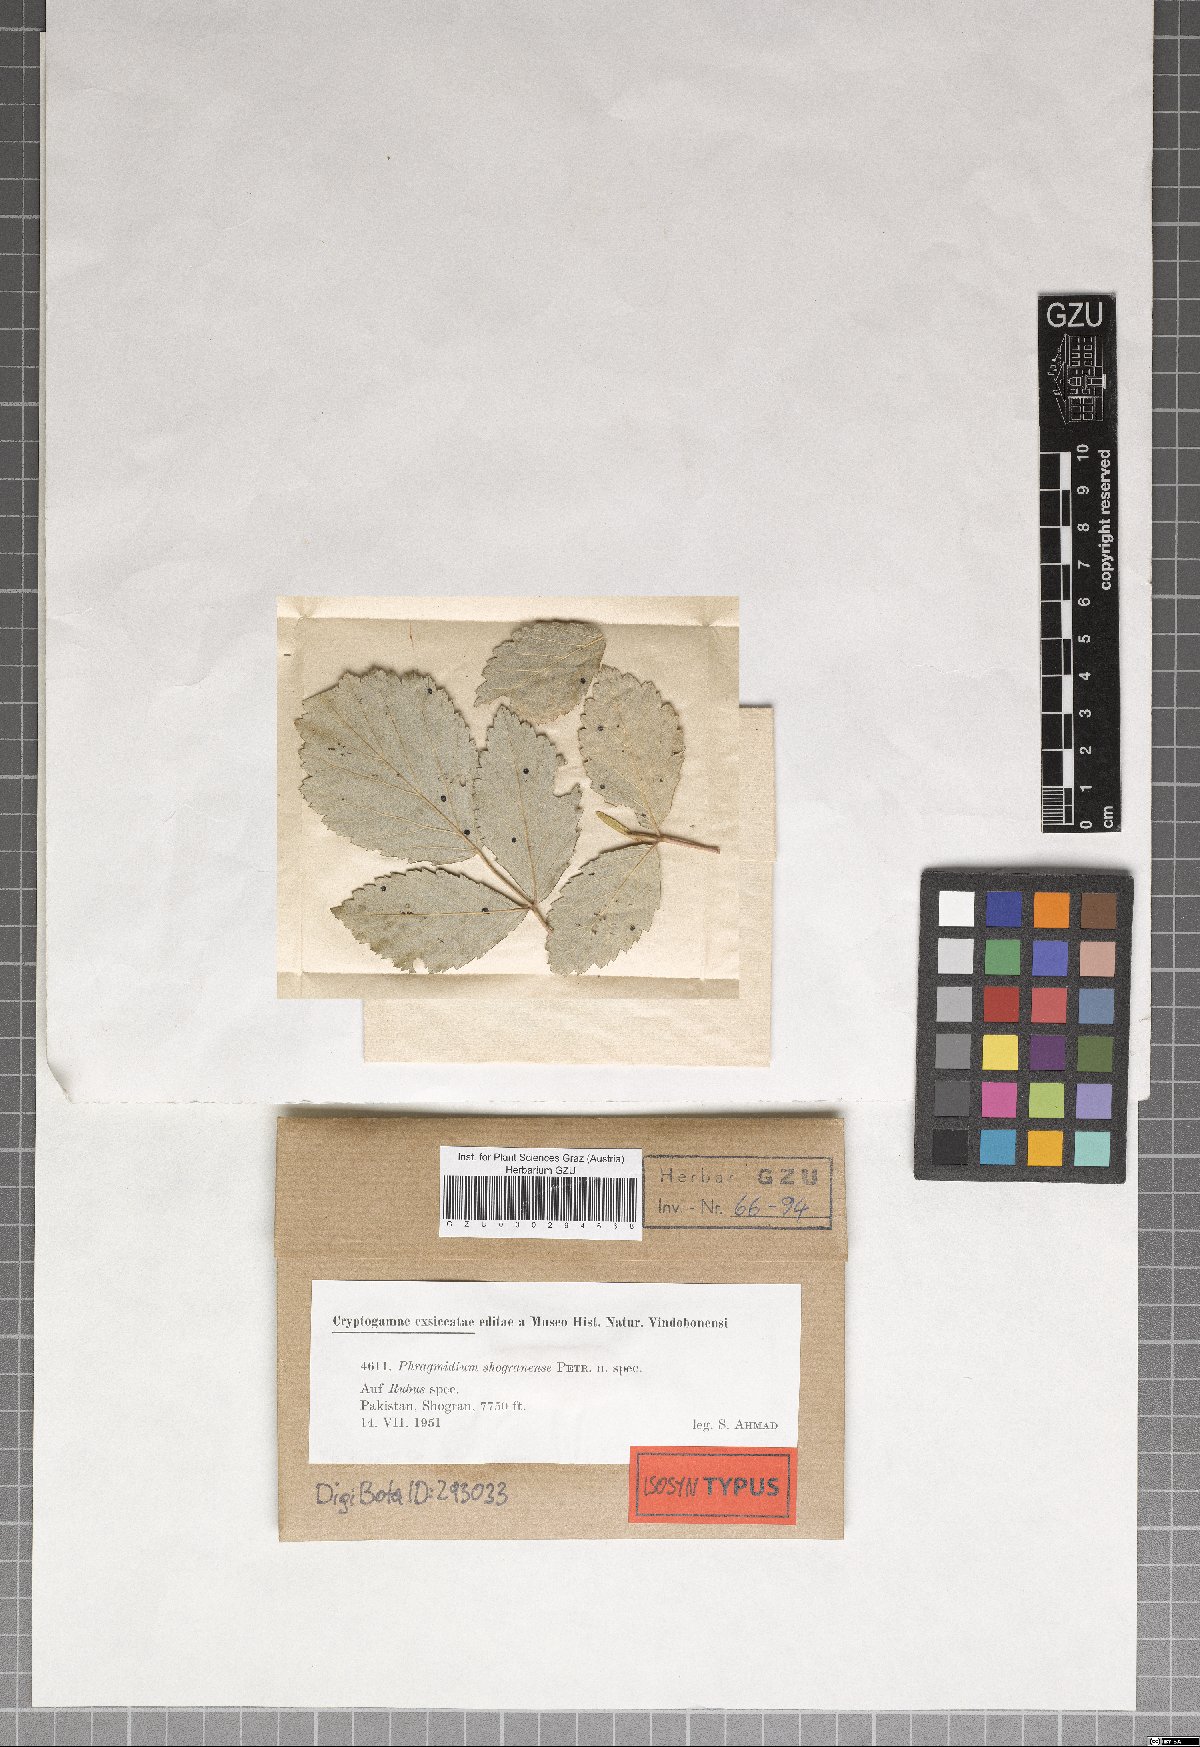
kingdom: Fungi
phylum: Basidiomycota
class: Pucciniomycetes
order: Pucciniales
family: Phragmidiaceae
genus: Phragmidium
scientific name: Phragmidium shogranense
